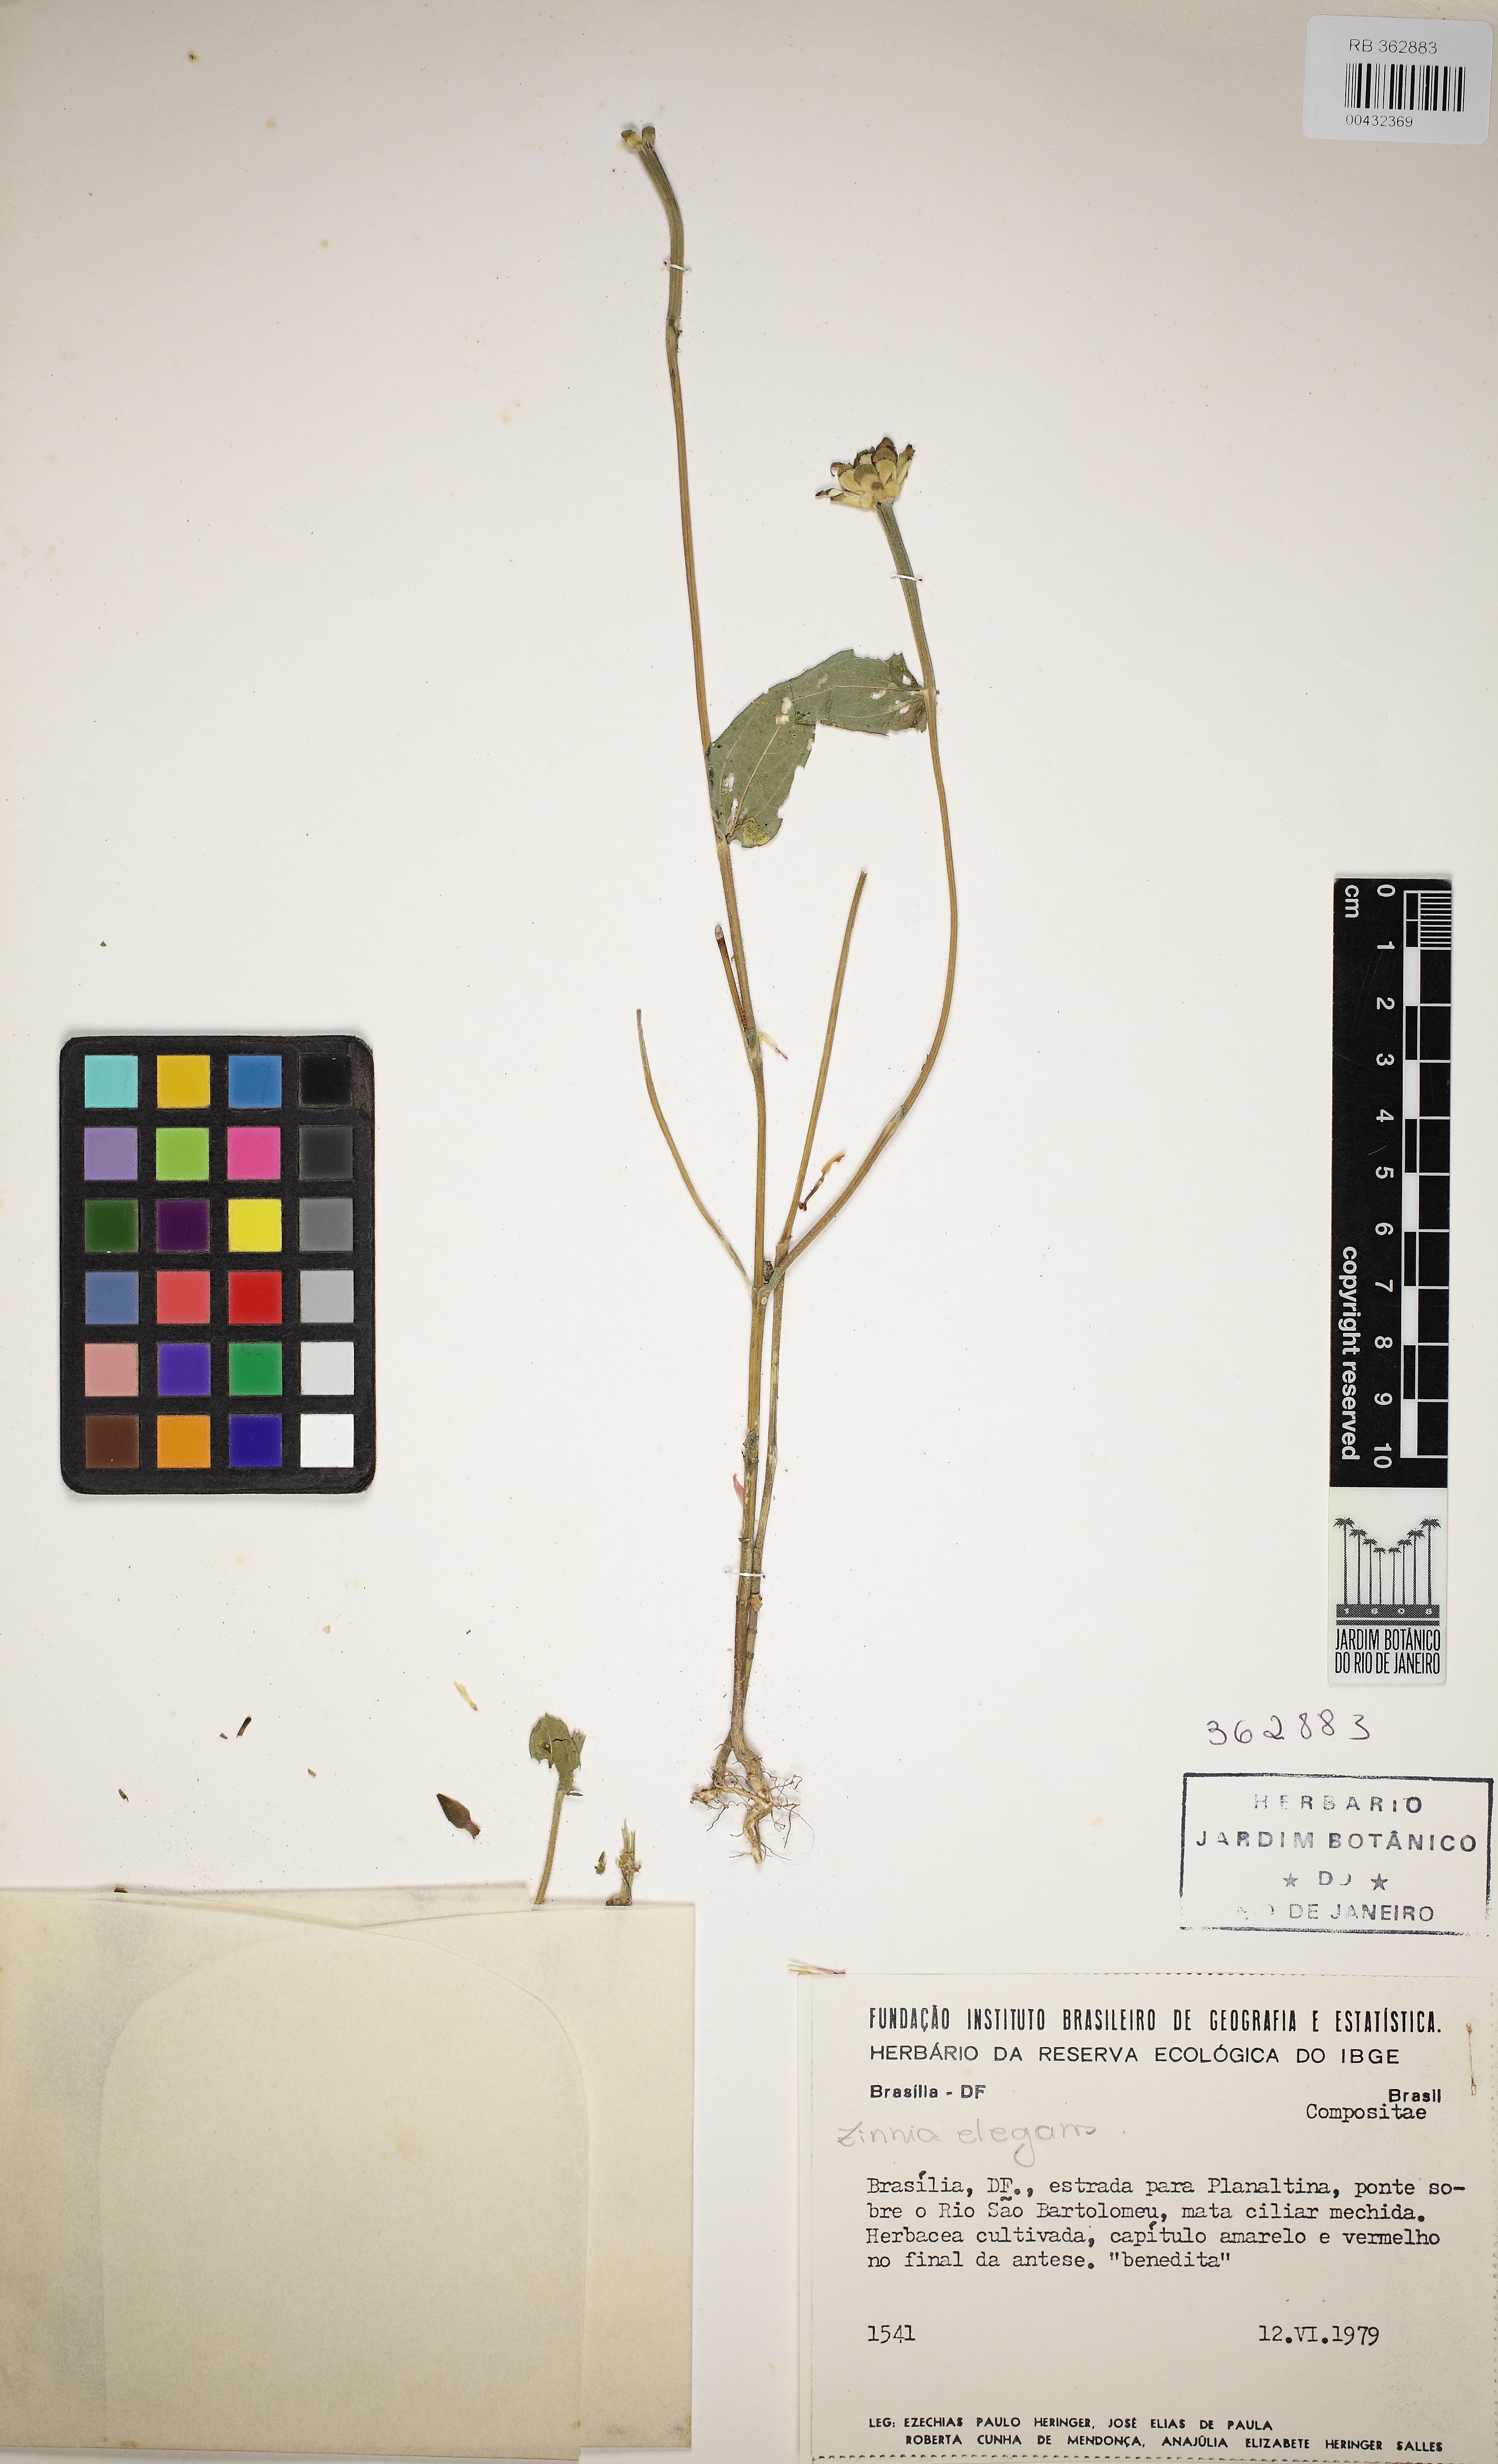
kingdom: Plantae
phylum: Tracheophyta
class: Magnoliopsida
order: Asterales
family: Asteraceae
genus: Zinnia
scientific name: Zinnia elegans
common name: Youth-and-age
